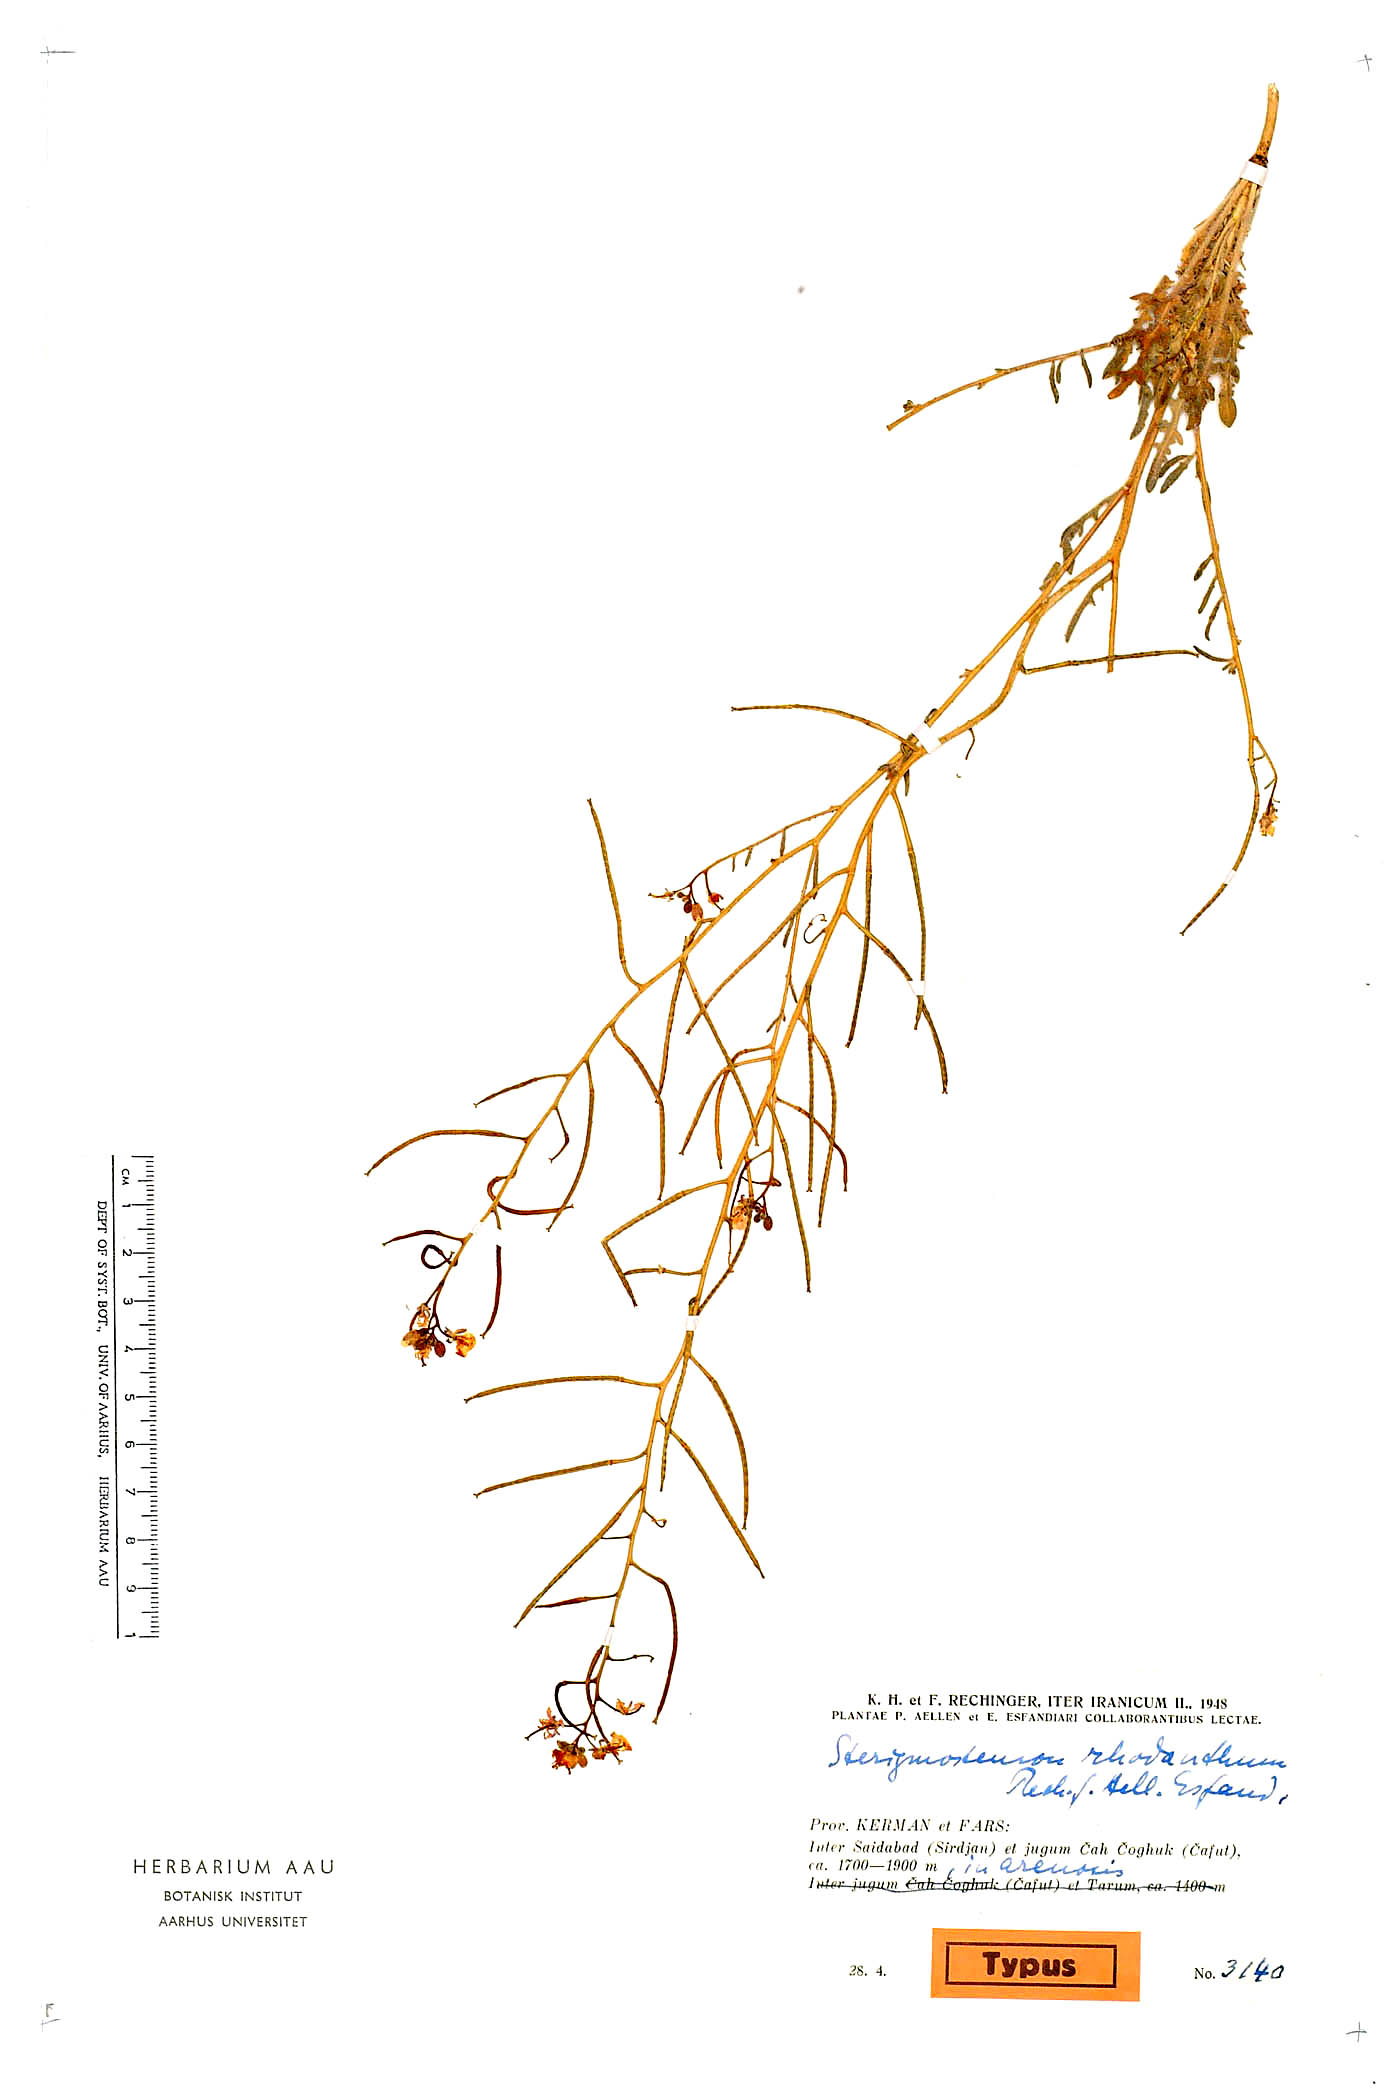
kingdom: Plantae
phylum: Tracheophyta
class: Magnoliopsida
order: Brassicales
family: Brassicaceae
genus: Sterigmostemum
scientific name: Sterigmostemum purpurascens
